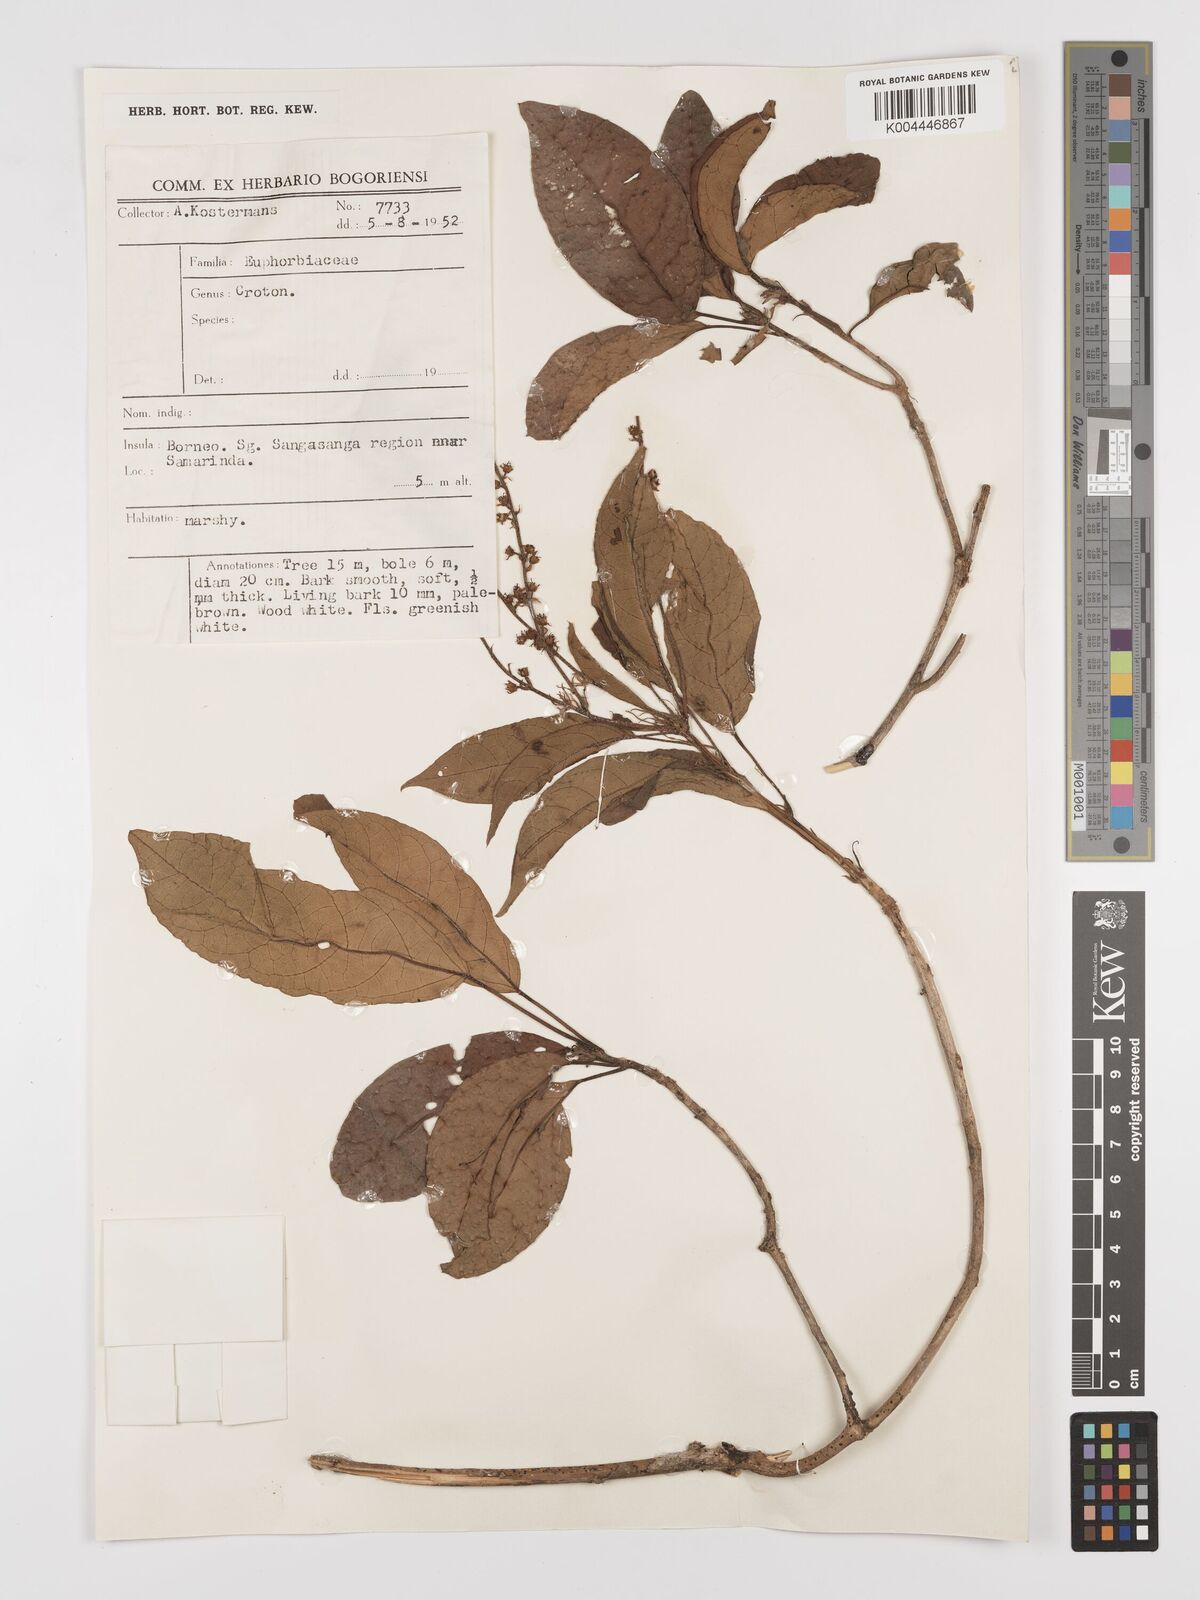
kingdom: Plantae
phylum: Tracheophyta
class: Magnoliopsida
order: Malpighiales
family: Euphorbiaceae
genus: Croton
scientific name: Croton
